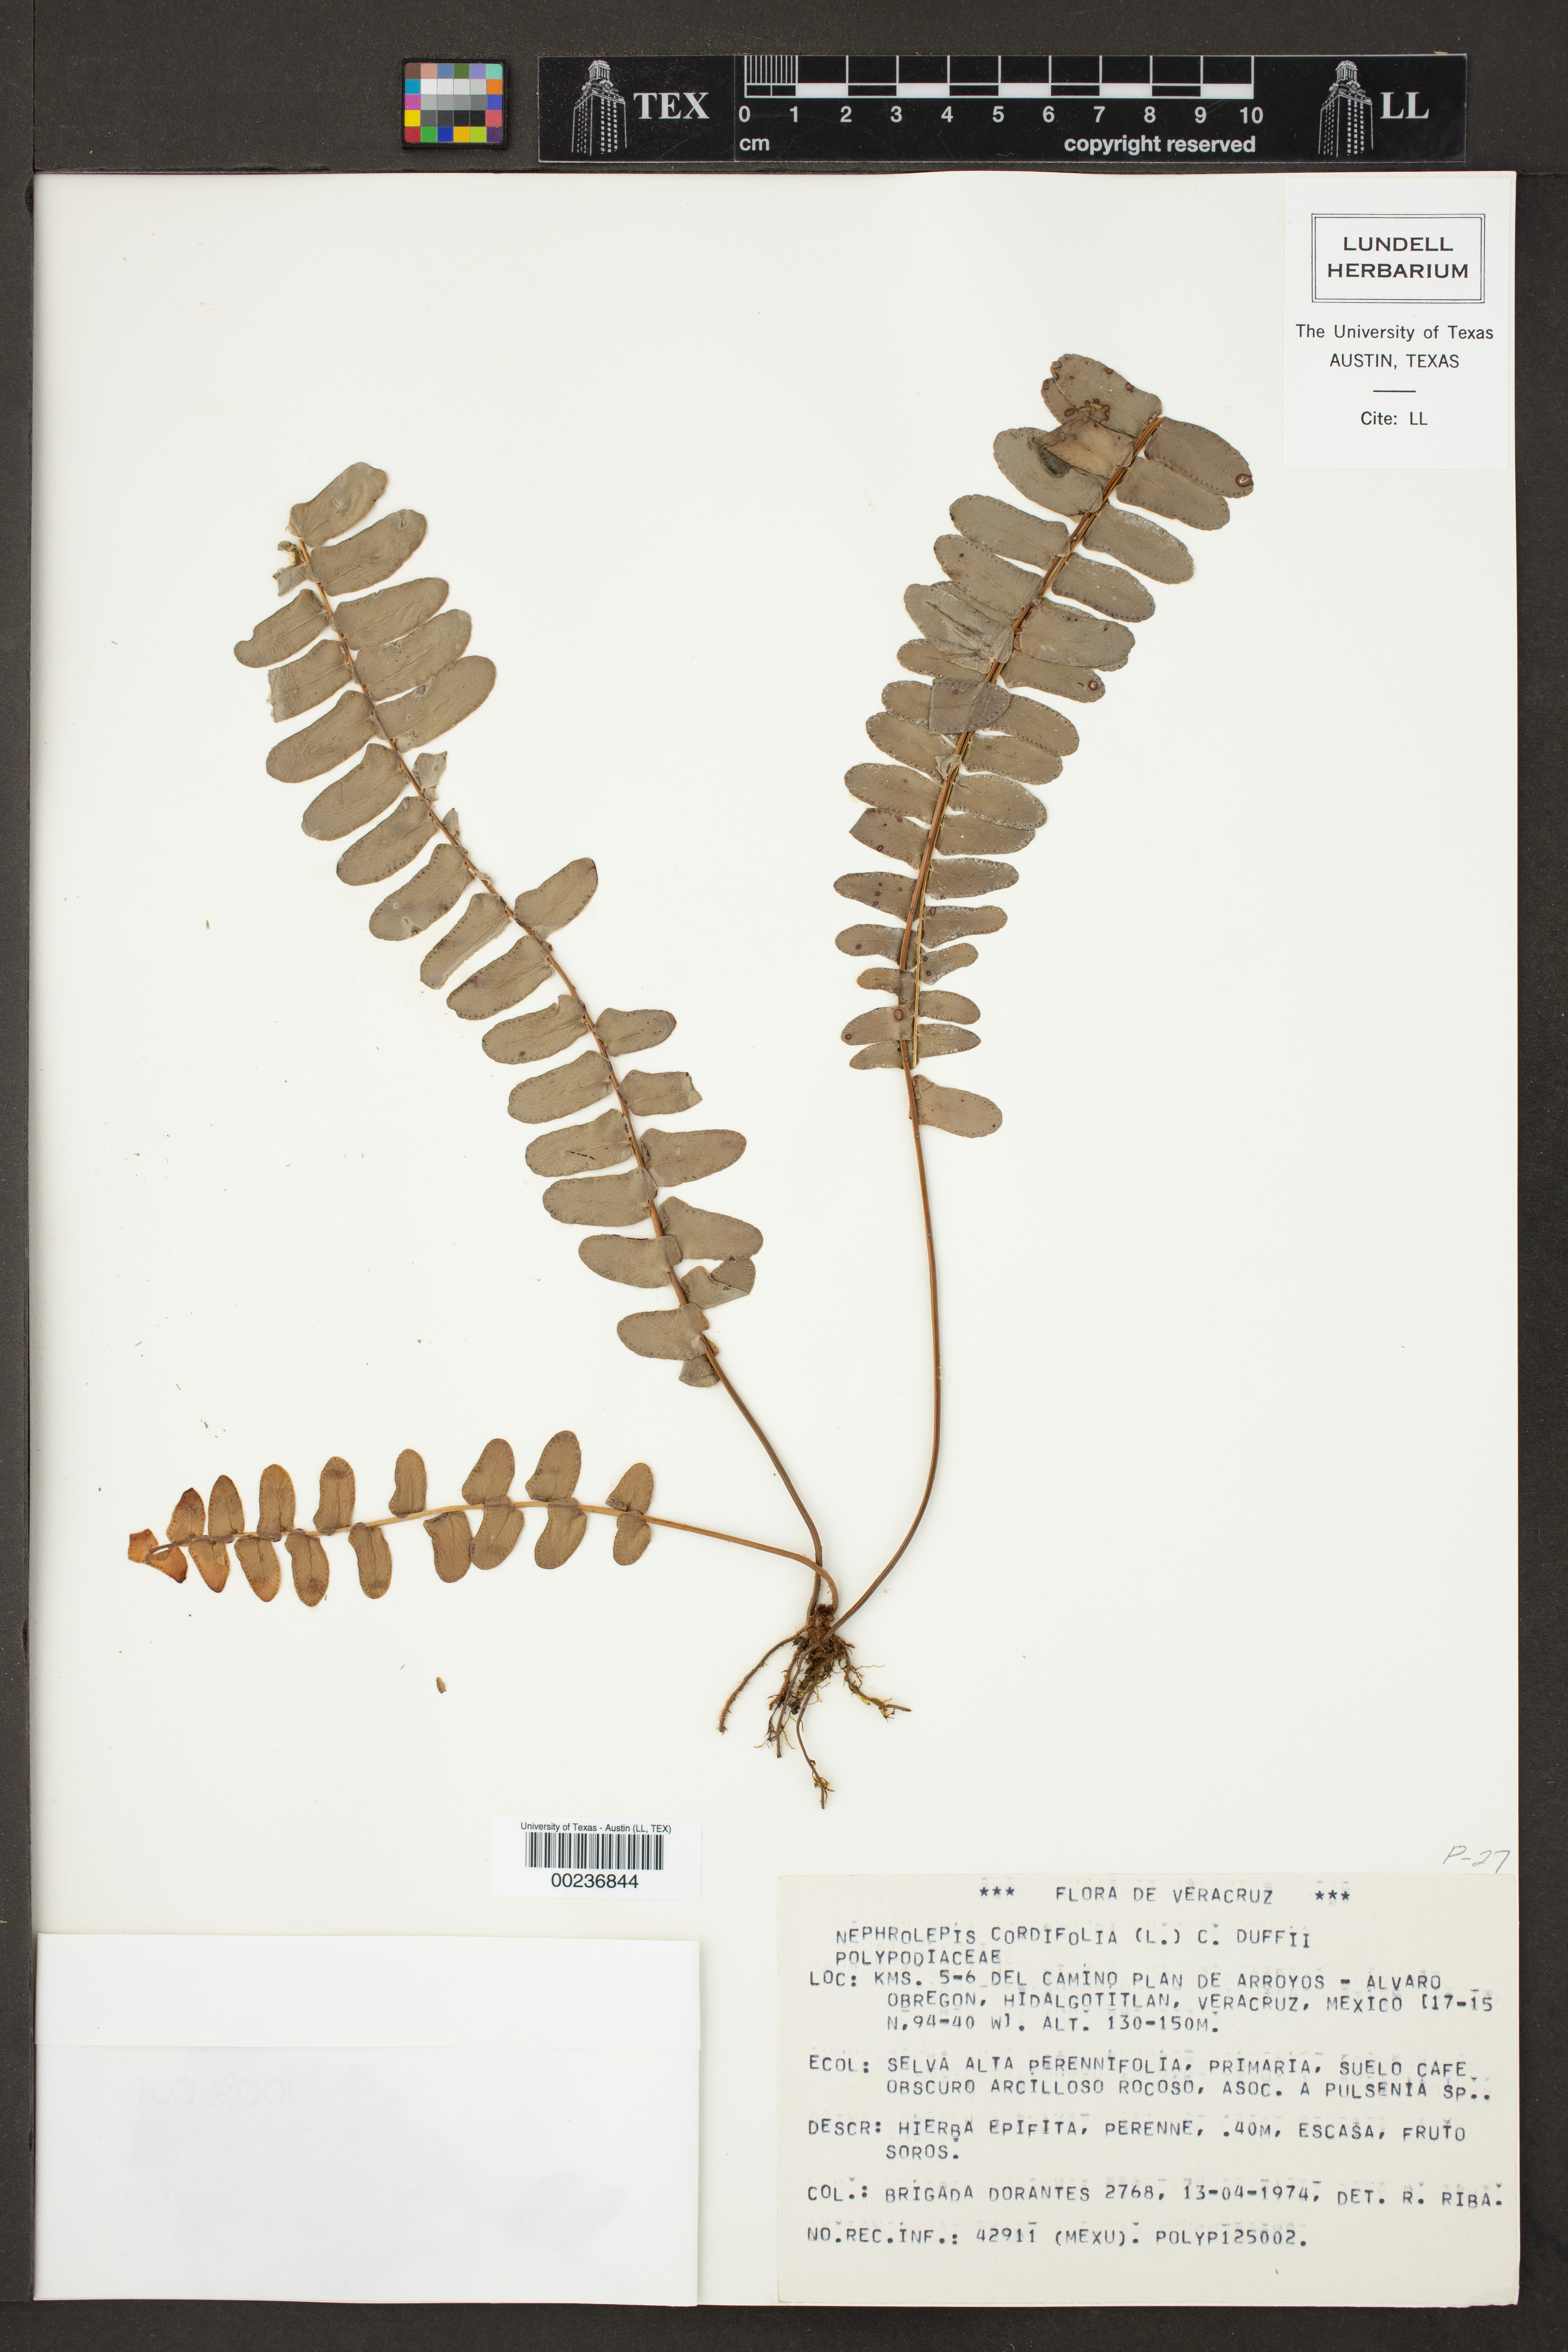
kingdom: Plantae
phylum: Tracheophyta
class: Polypodiopsida
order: Polypodiales
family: Nephrolepidaceae
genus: Nephrolepis
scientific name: Nephrolepis cordifolia
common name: Narrow swordfern
